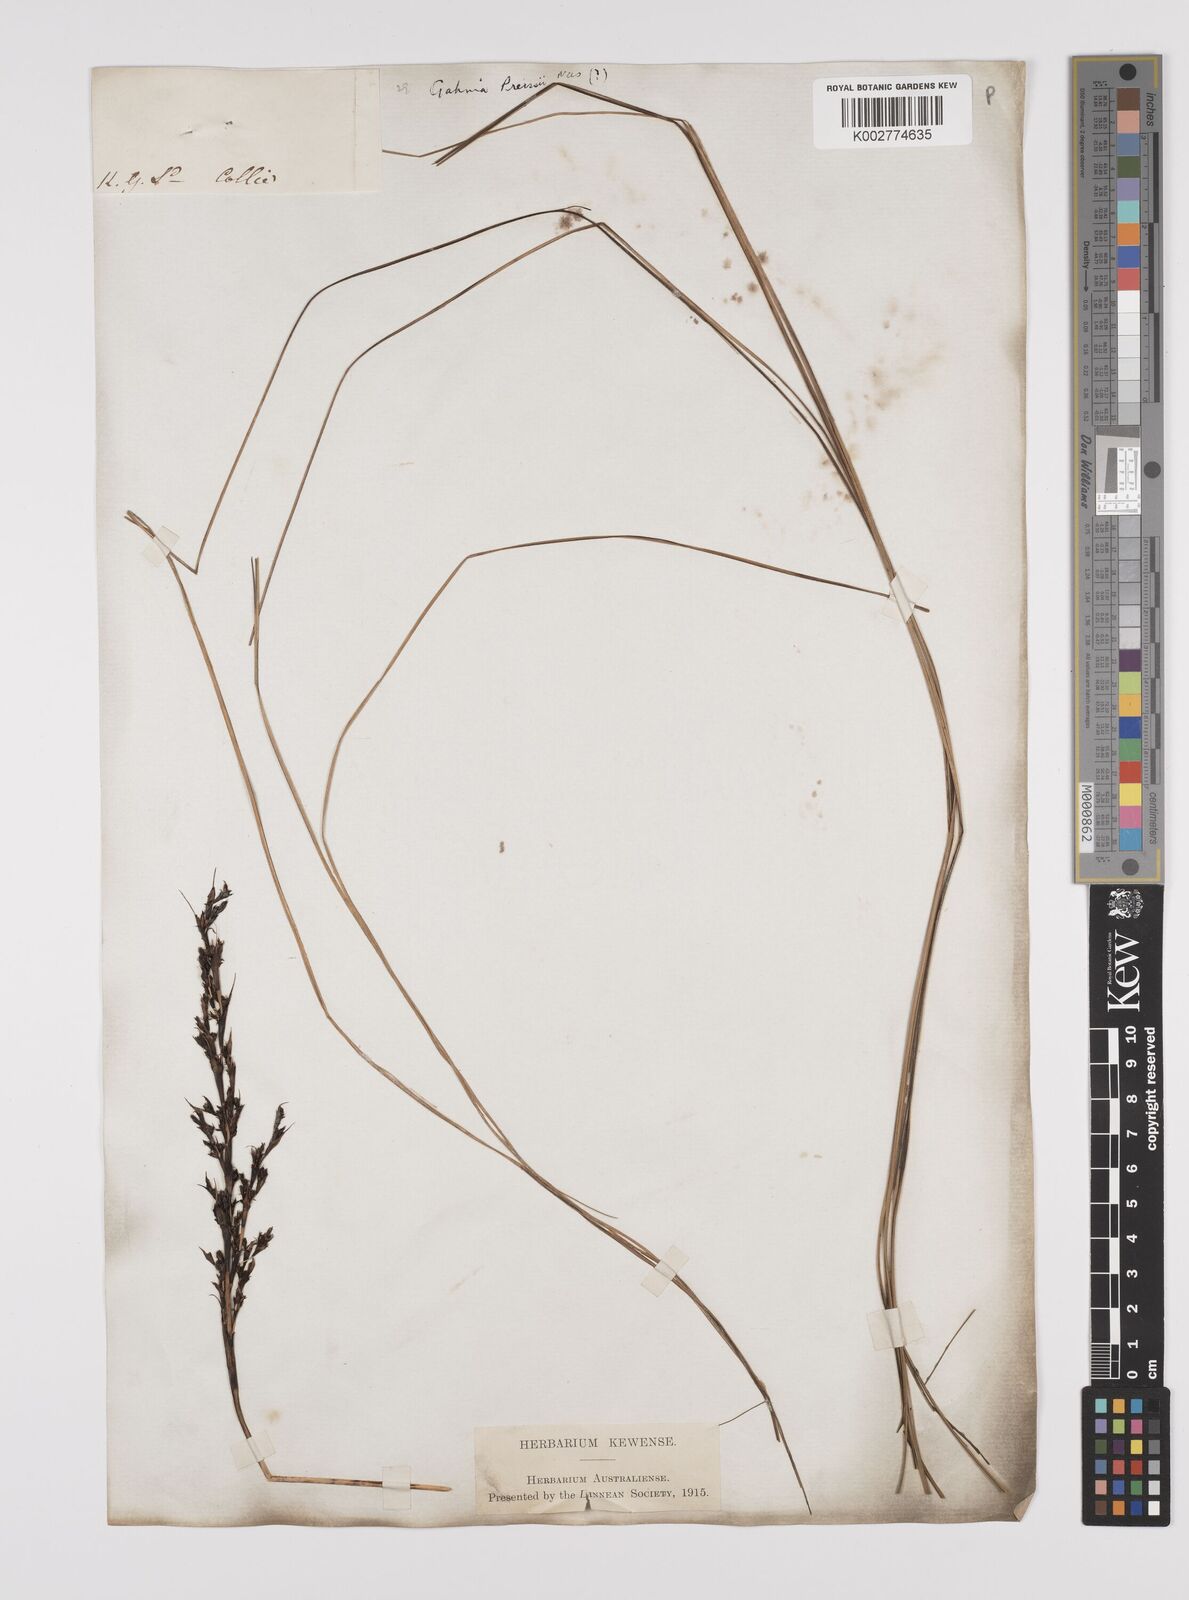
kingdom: Plantae
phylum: Tracheophyta
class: Liliopsida
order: Poales
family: Cyperaceae
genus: Gahnia
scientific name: Gahnia decomposita
